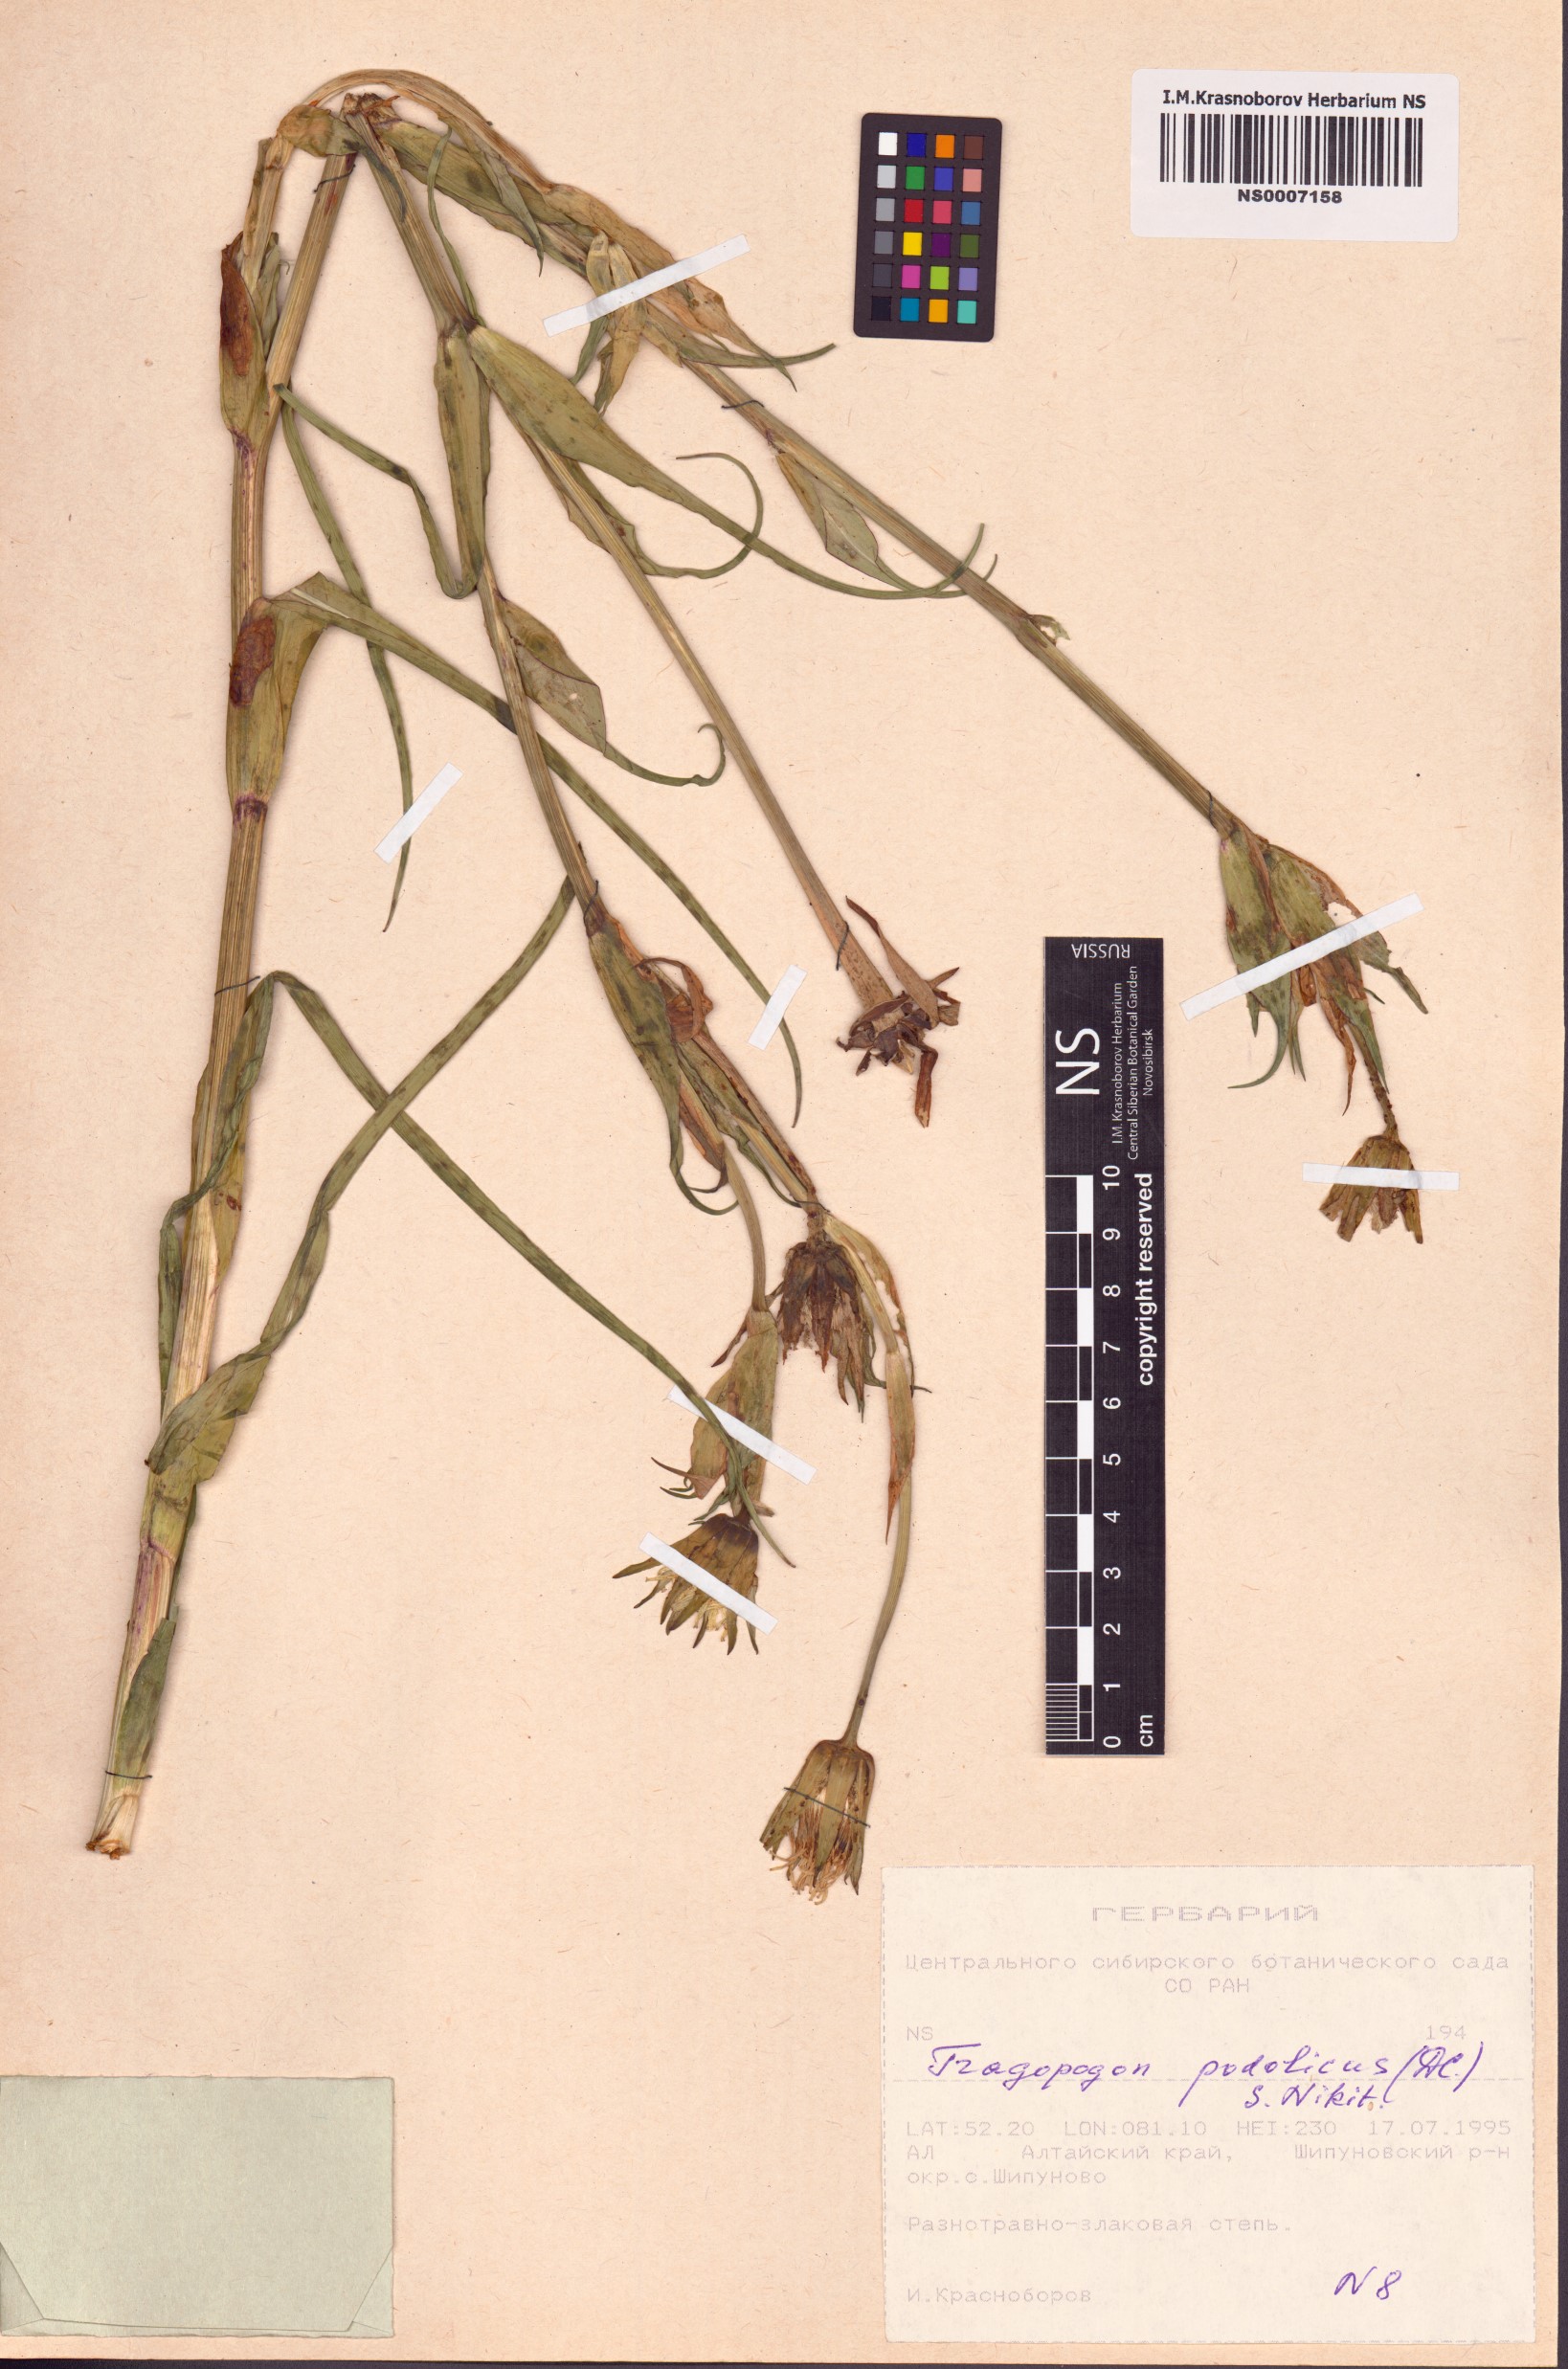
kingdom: Plantae
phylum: Tracheophyta
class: Magnoliopsida
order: Asterales
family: Asteraceae
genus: Tragopogon
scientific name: Tragopogon podolicus
